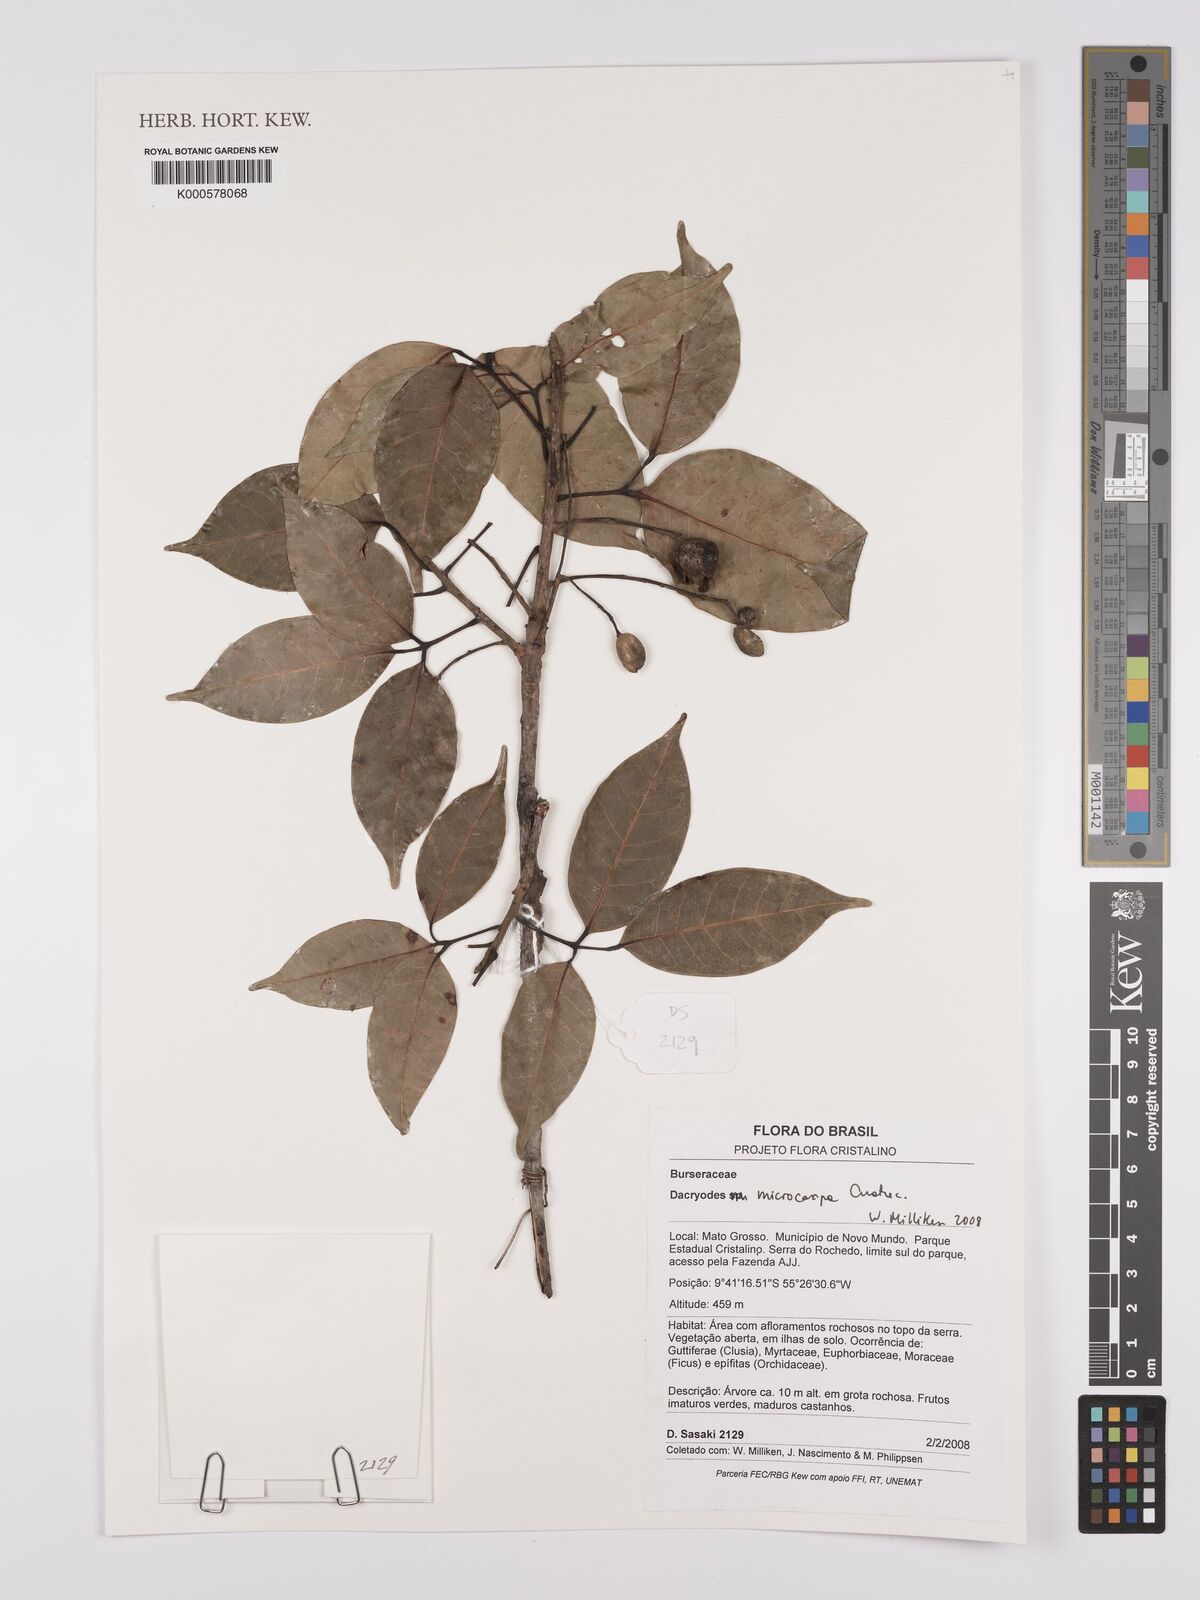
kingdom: Plantae
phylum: Tracheophyta
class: Magnoliopsida
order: Sapindales
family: Burseraceae
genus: Dacryodes
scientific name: Dacryodes microcarpa
